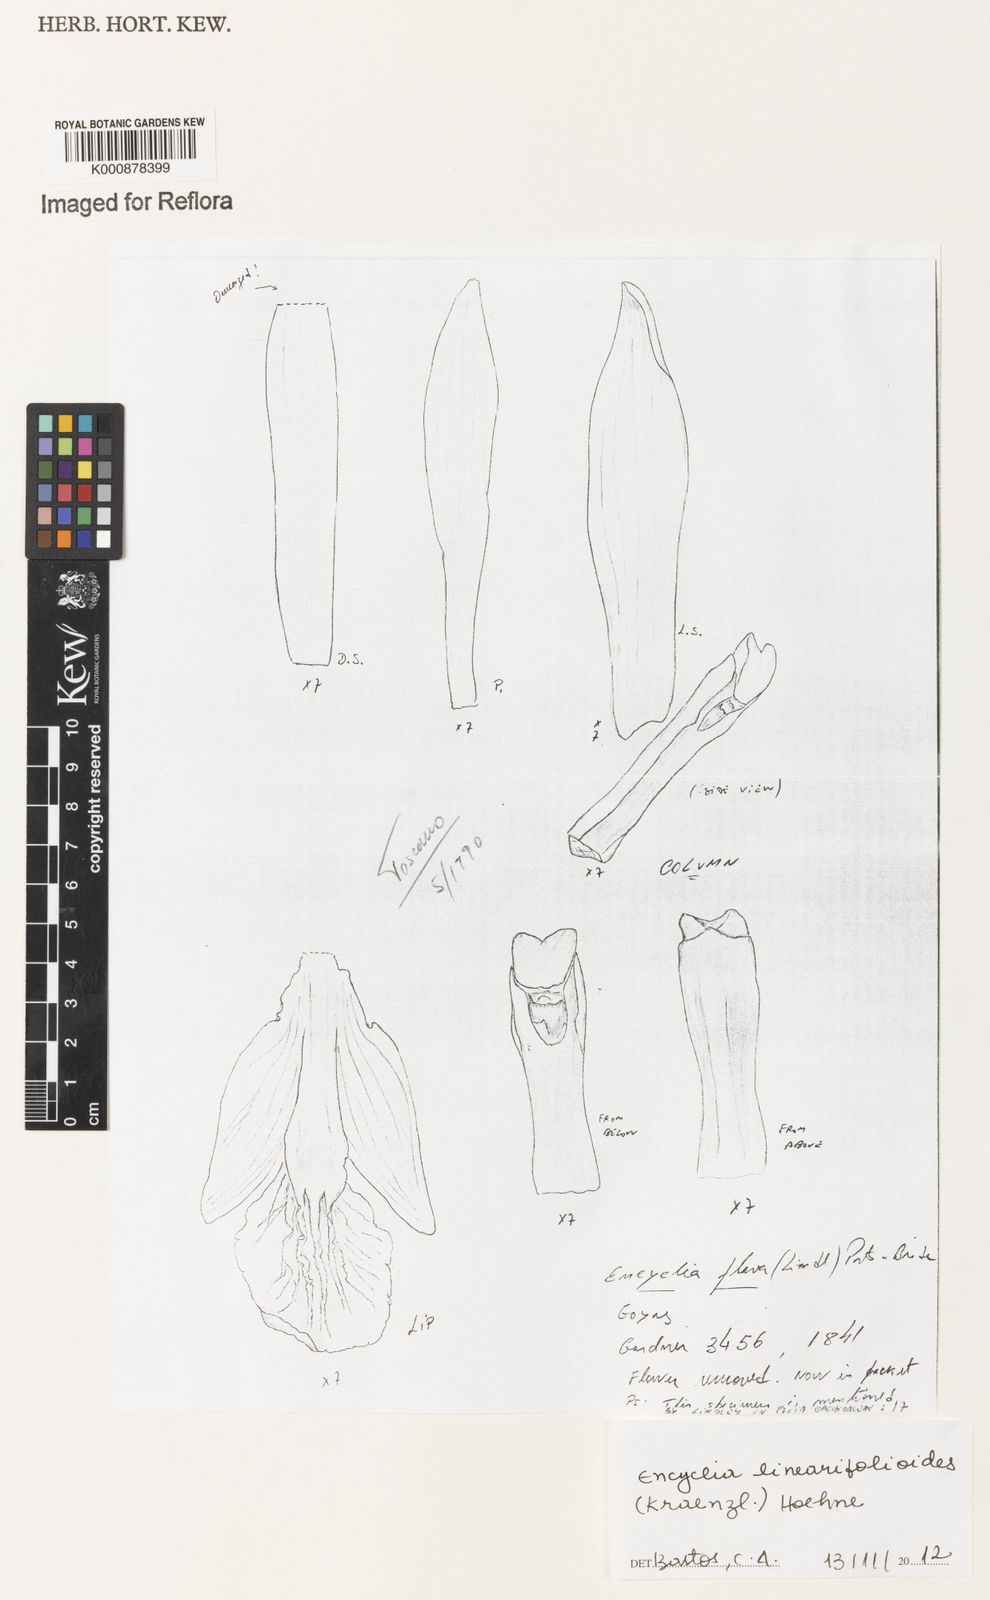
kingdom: Plantae
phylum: Tracheophyta
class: Liliopsida
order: Asparagales
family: Orchidaceae
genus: Encyclia
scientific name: Encyclia linearifolioides
